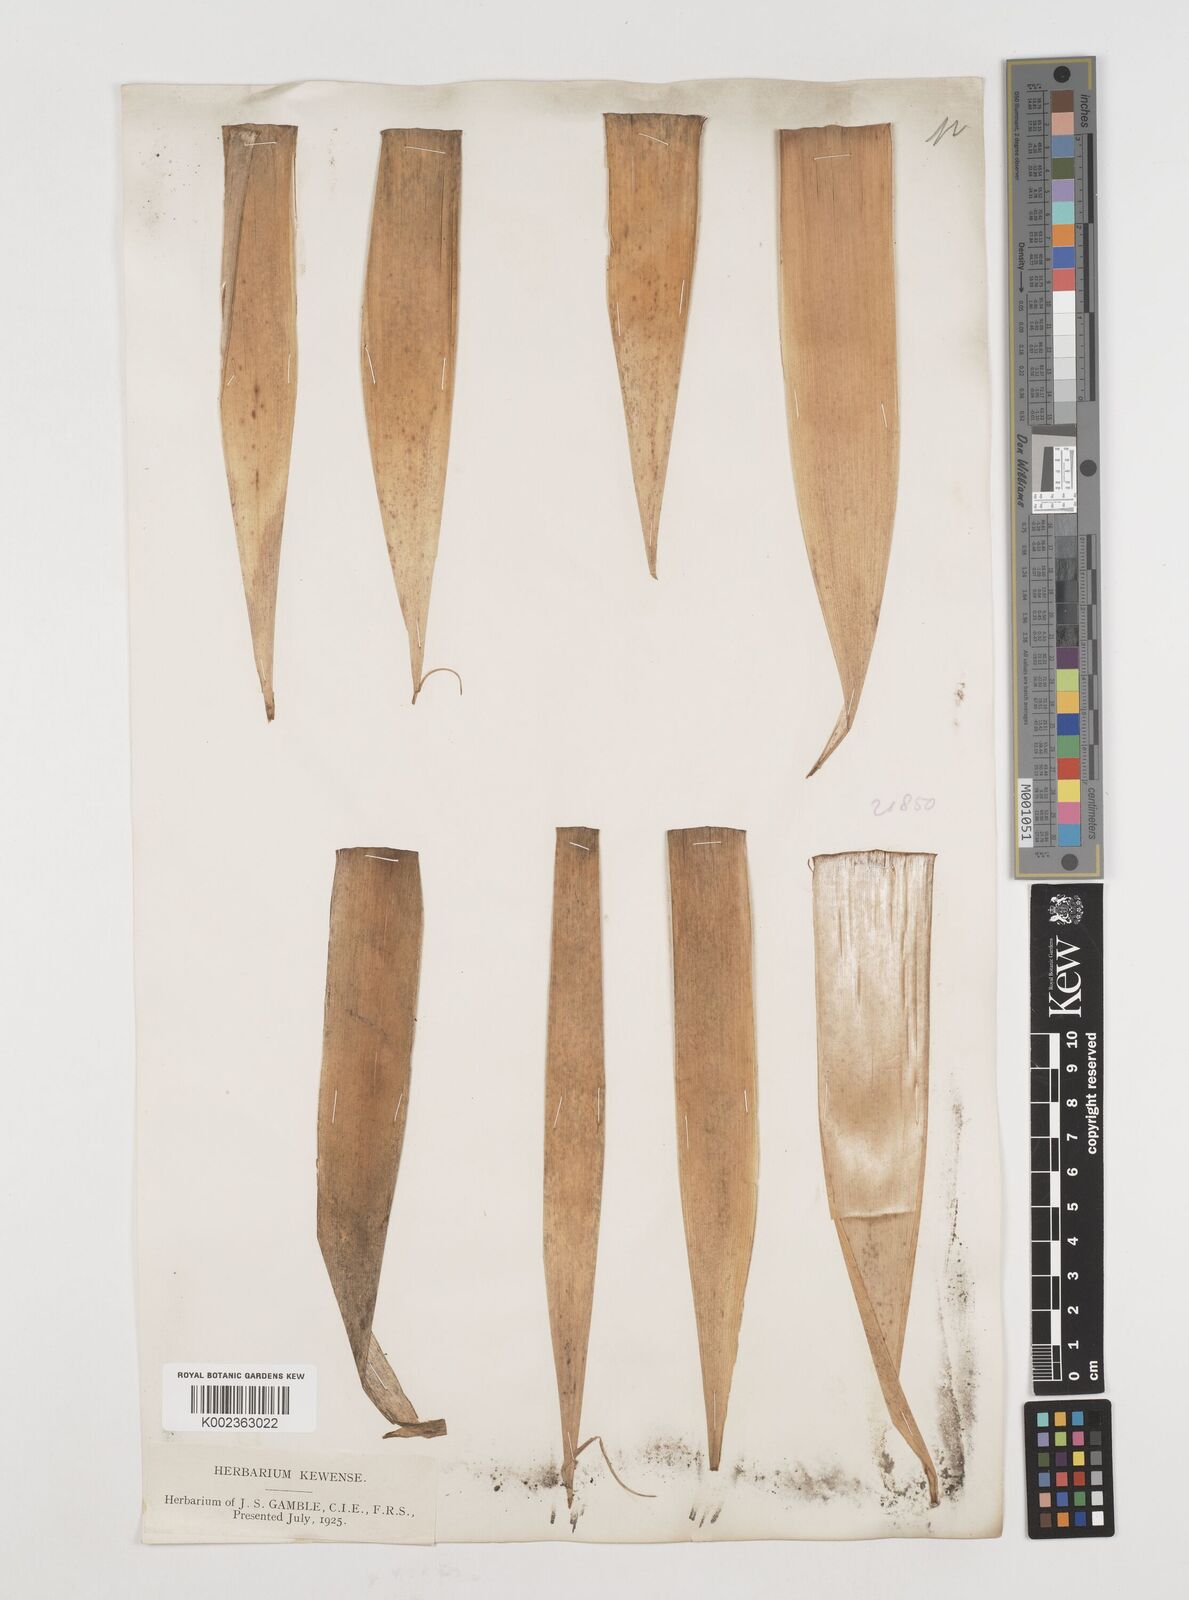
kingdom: Plantae
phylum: Tracheophyta
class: Liliopsida
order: Poales
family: Poaceae
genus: Drepanostachyum
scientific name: Drepanostachyum khasianum
